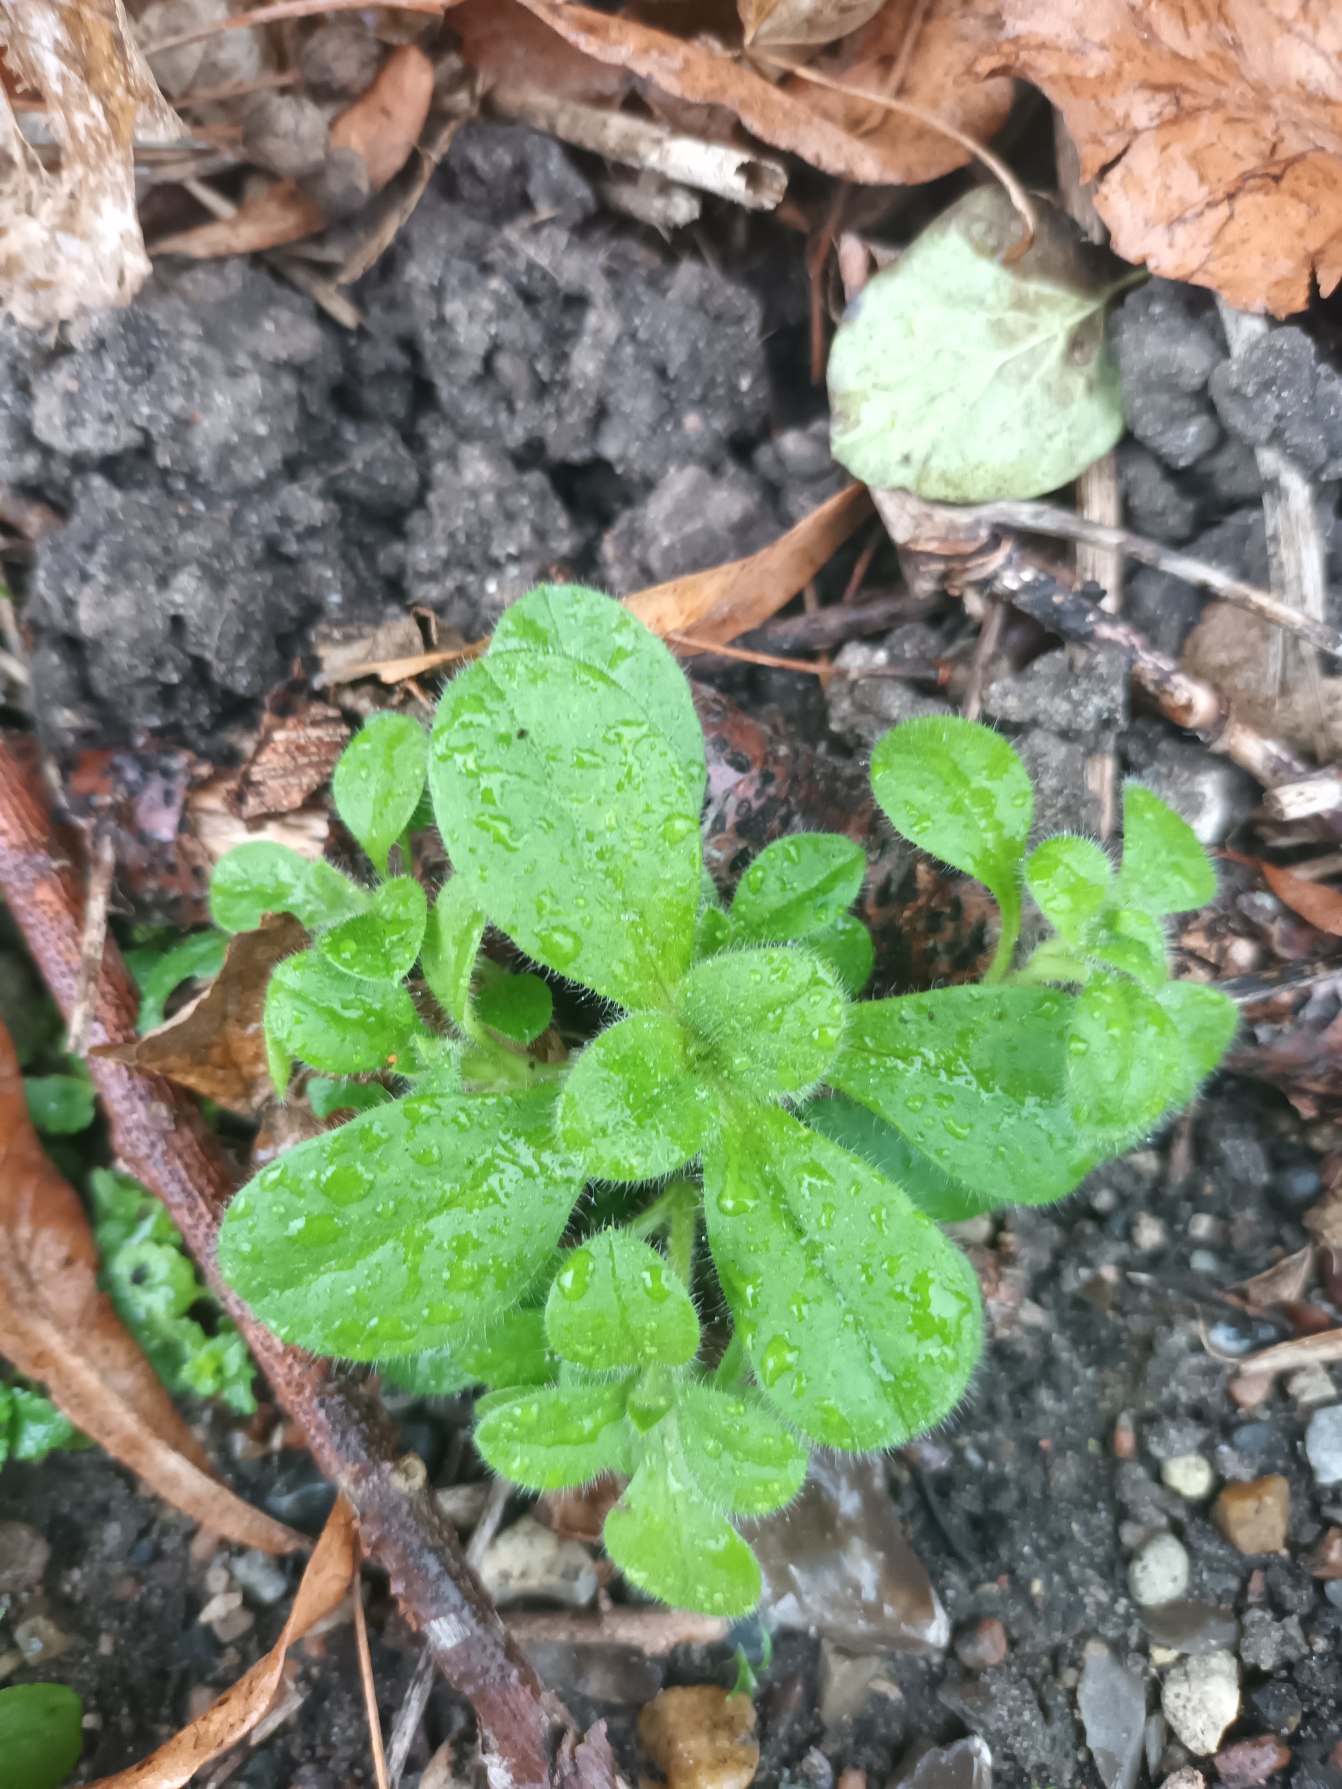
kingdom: Plantae
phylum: Tracheophyta
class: Magnoliopsida
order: Caryophyllales
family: Caryophyllaceae
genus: Cerastium
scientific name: Cerastium glomeratum
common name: Opret hønsetarm
